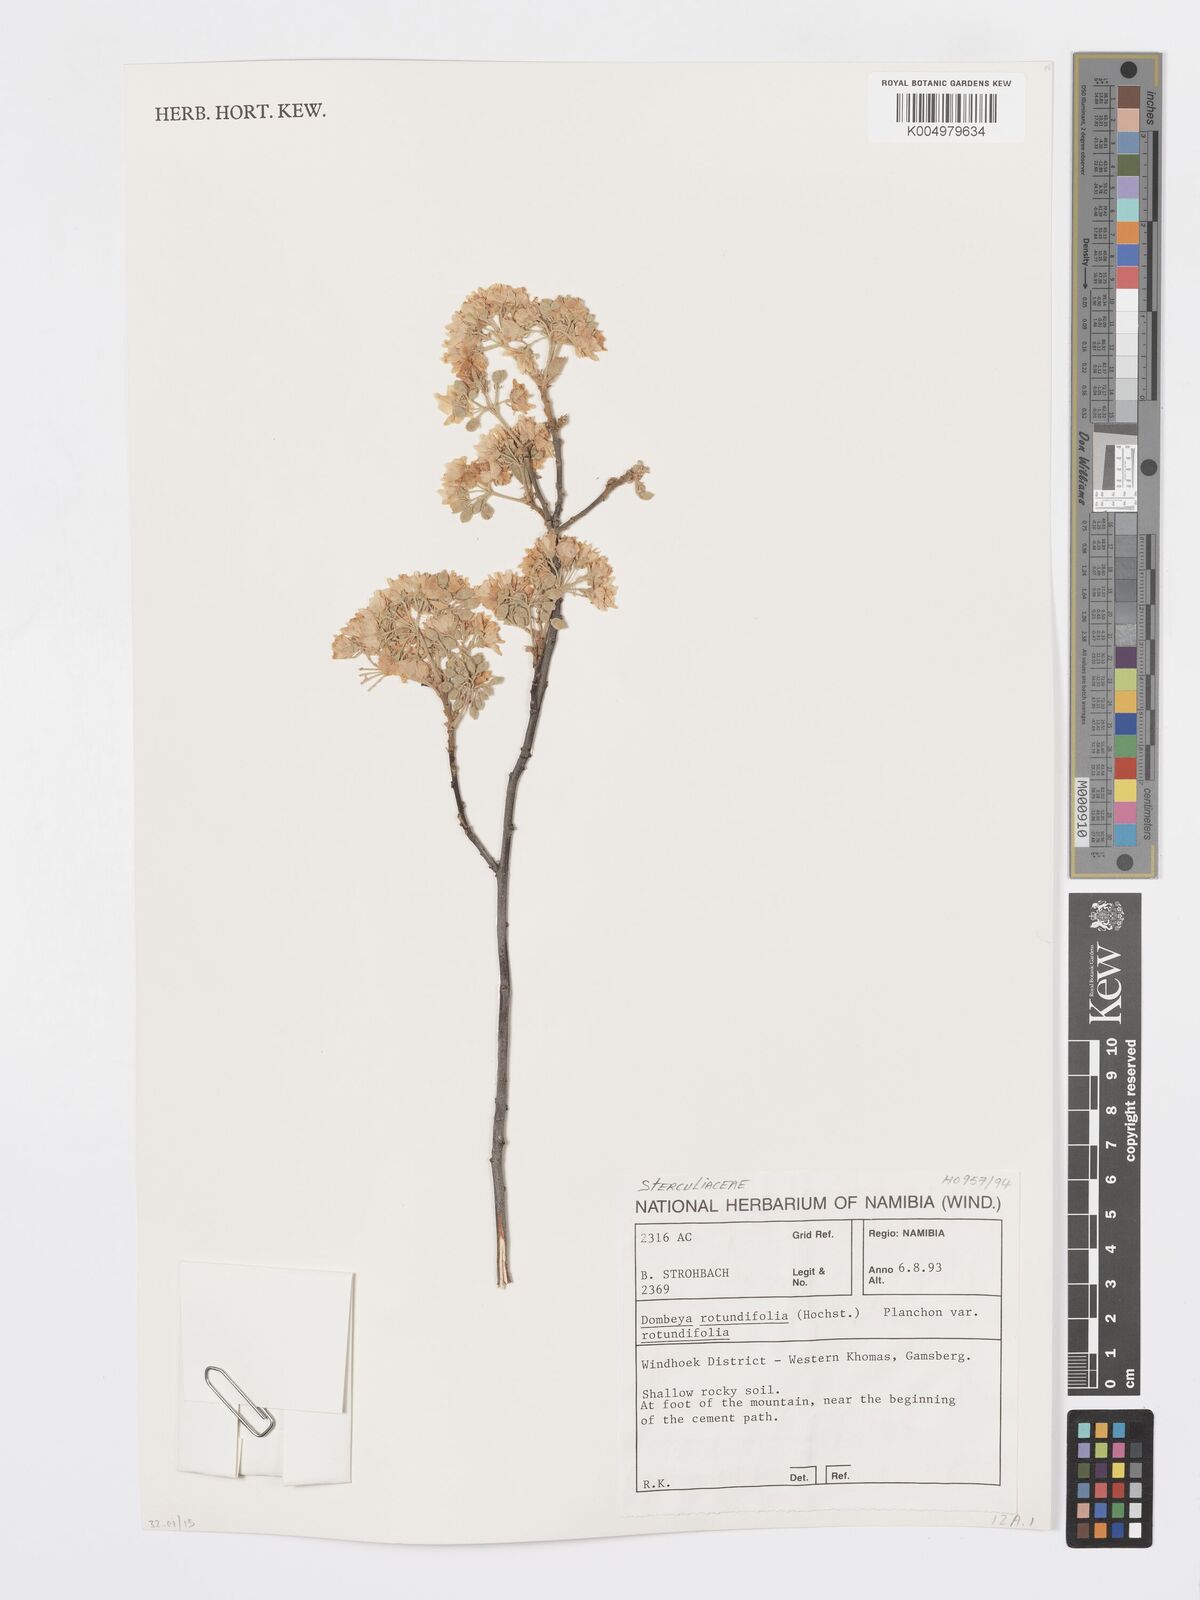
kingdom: Plantae
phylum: Tracheophyta
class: Magnoliopsida
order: Malvales
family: Malvaceae
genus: Dombeya
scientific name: Dombeya rotundifolia
